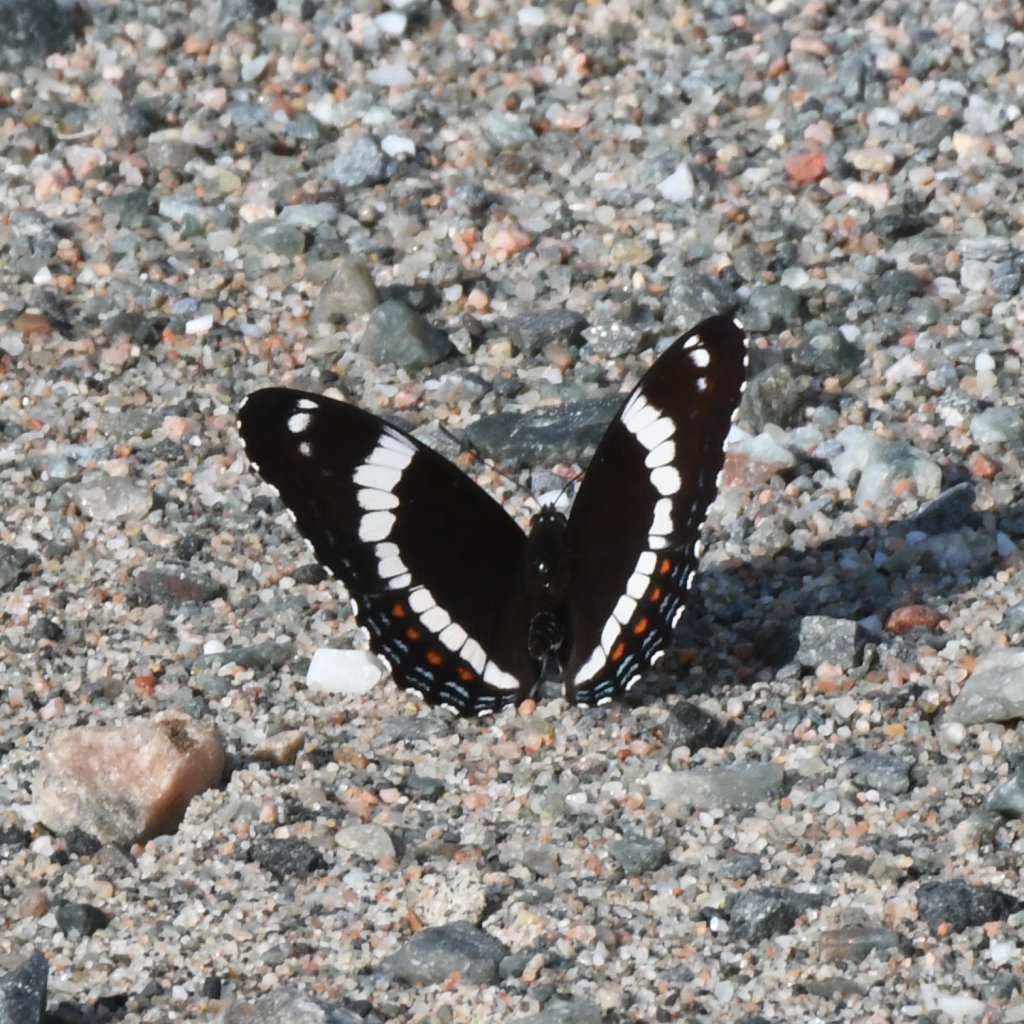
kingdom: Animalia
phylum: Arthropoda
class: Insecta
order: Lepidoptera
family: Nymphalidae
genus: Limenitis
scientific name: Limenitis arthemis
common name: Red-spotted Admiral
